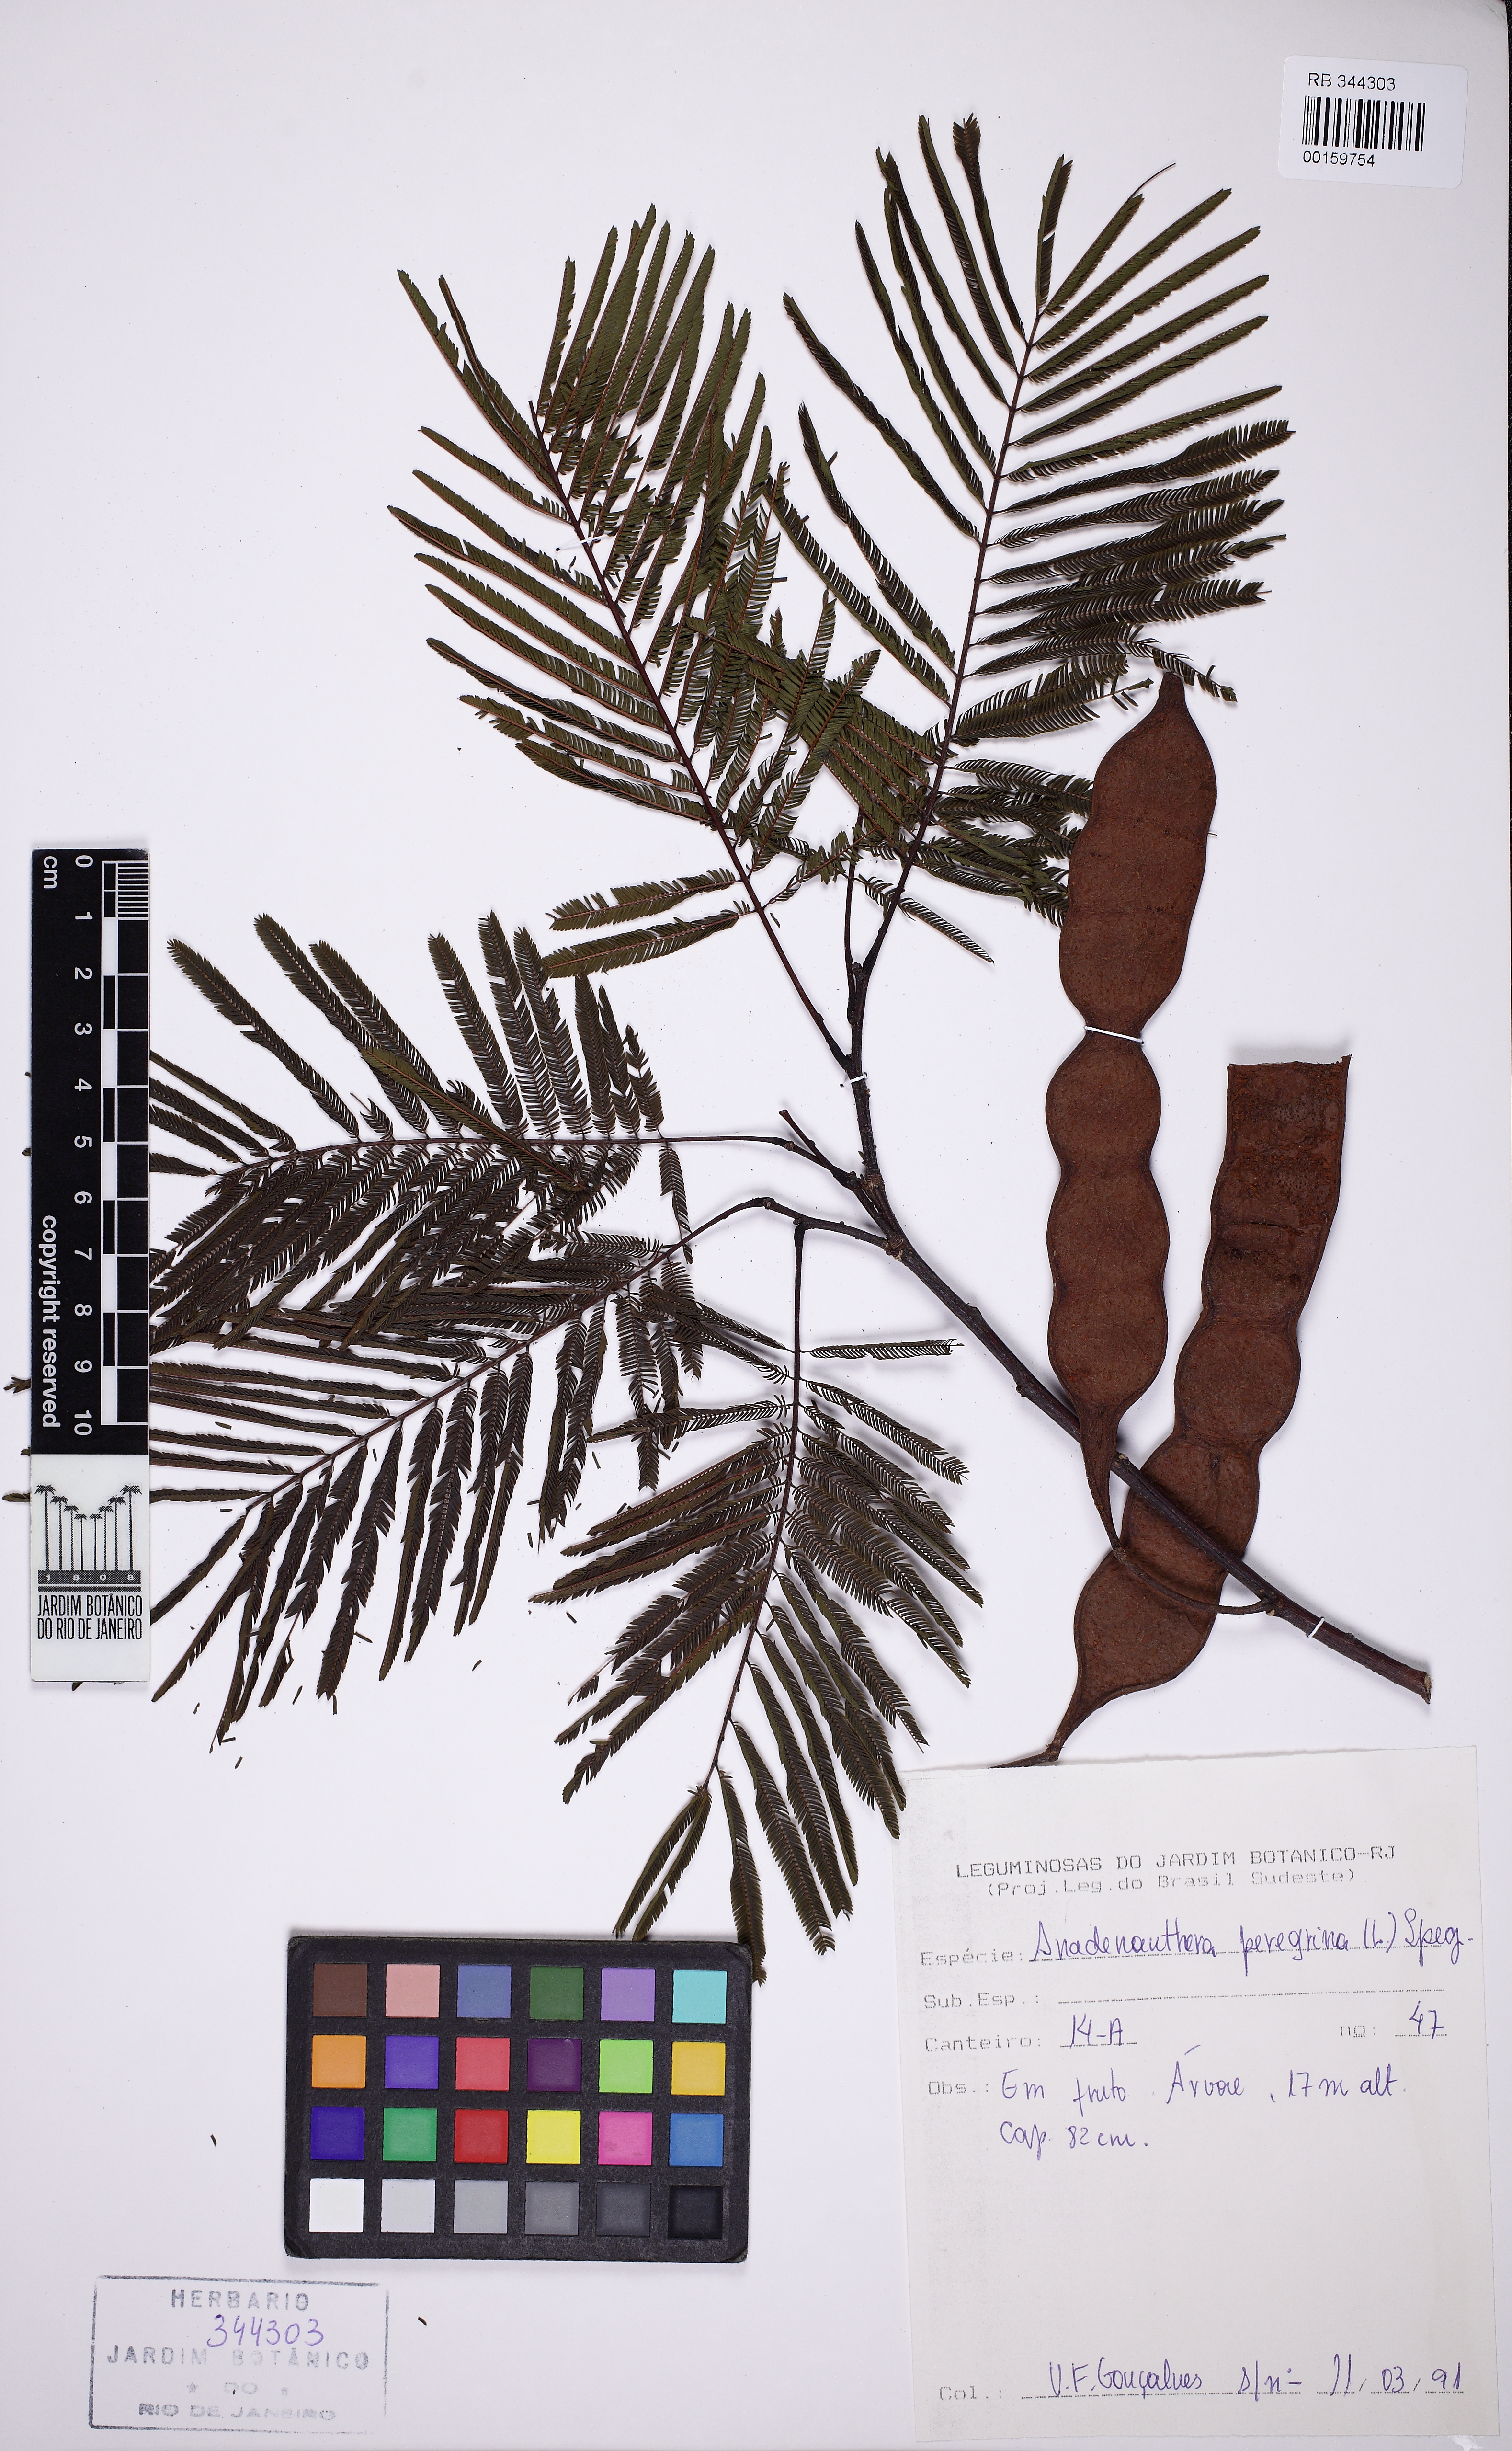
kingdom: Plantae
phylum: Tracheophyta
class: Magnoliopsida
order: Fabales
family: Fabaceae
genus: Anadenanthera
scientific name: Anadenanthera peregrina
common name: Cohoba
